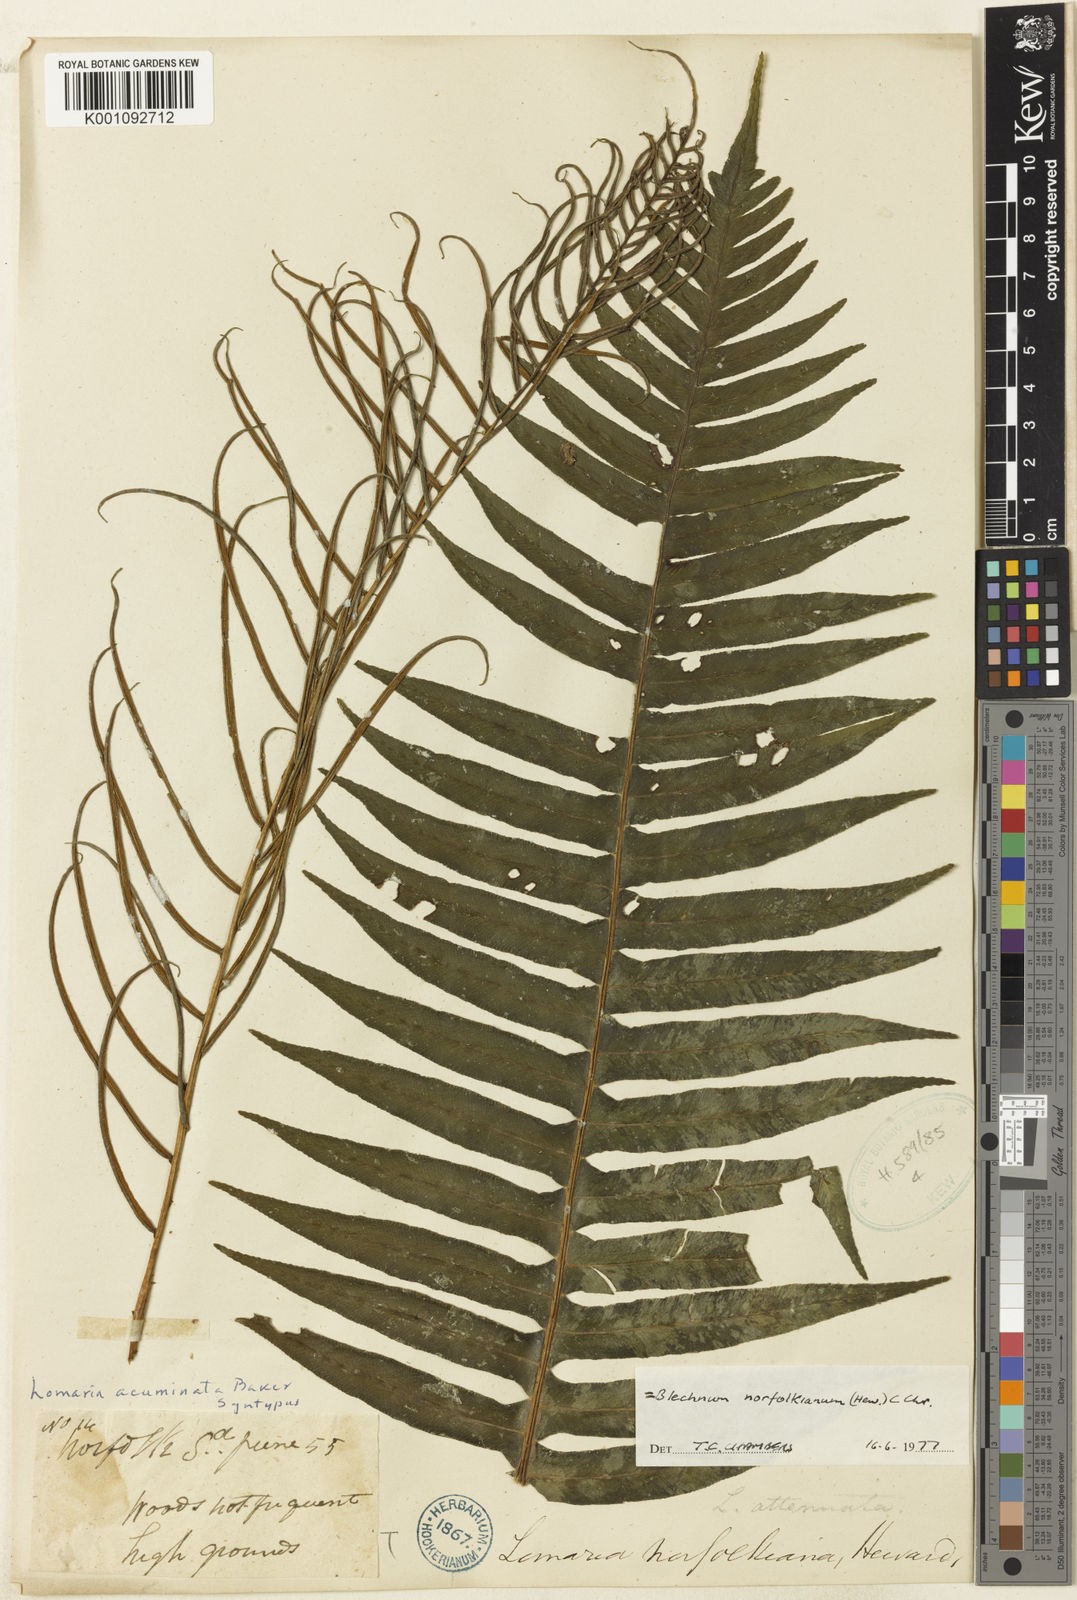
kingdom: Plantae
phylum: Tracheophyta
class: Polypodiopsida
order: Polypodiales
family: Blechnaceae
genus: Austroblechnum
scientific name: Austroblechnum norfolkianum
